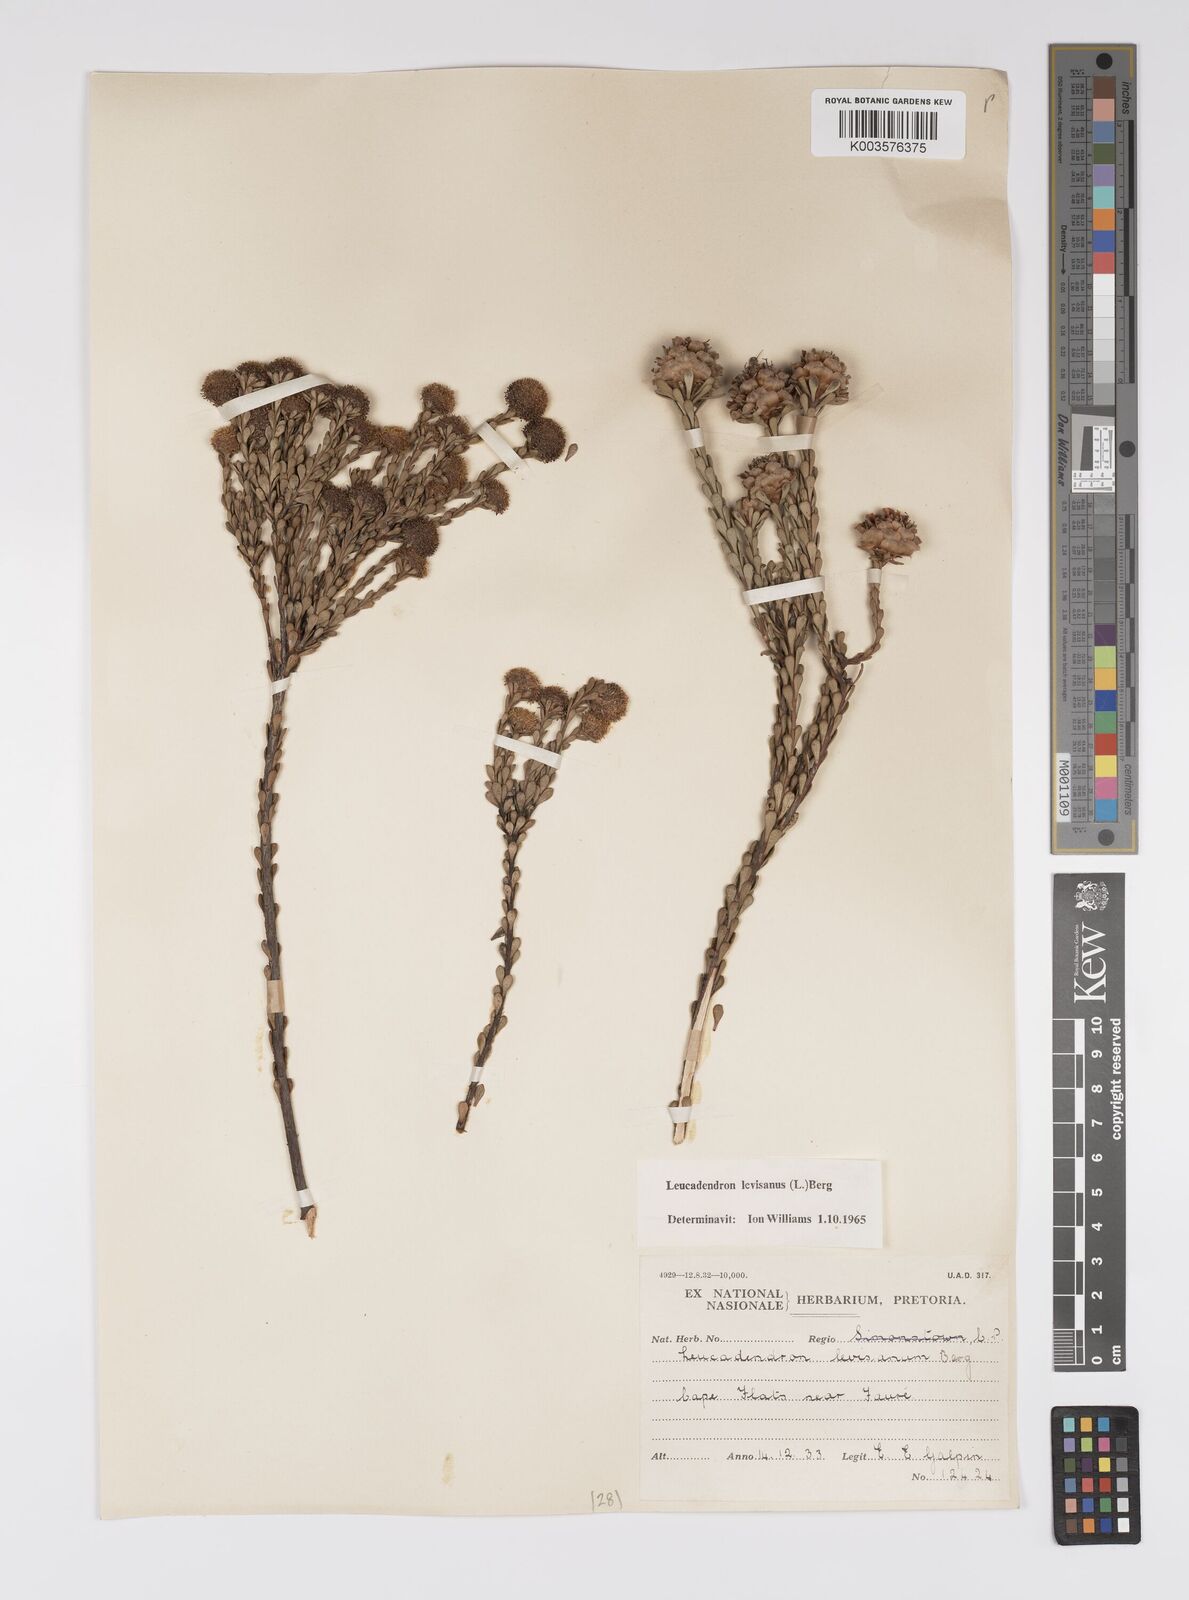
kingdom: Plantae
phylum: Tracheophyta
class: Magnoliopsida
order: Proteales
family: Proteaceae
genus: Leucadendron
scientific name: Leucadendron levisanus
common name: Cape flats conebush
